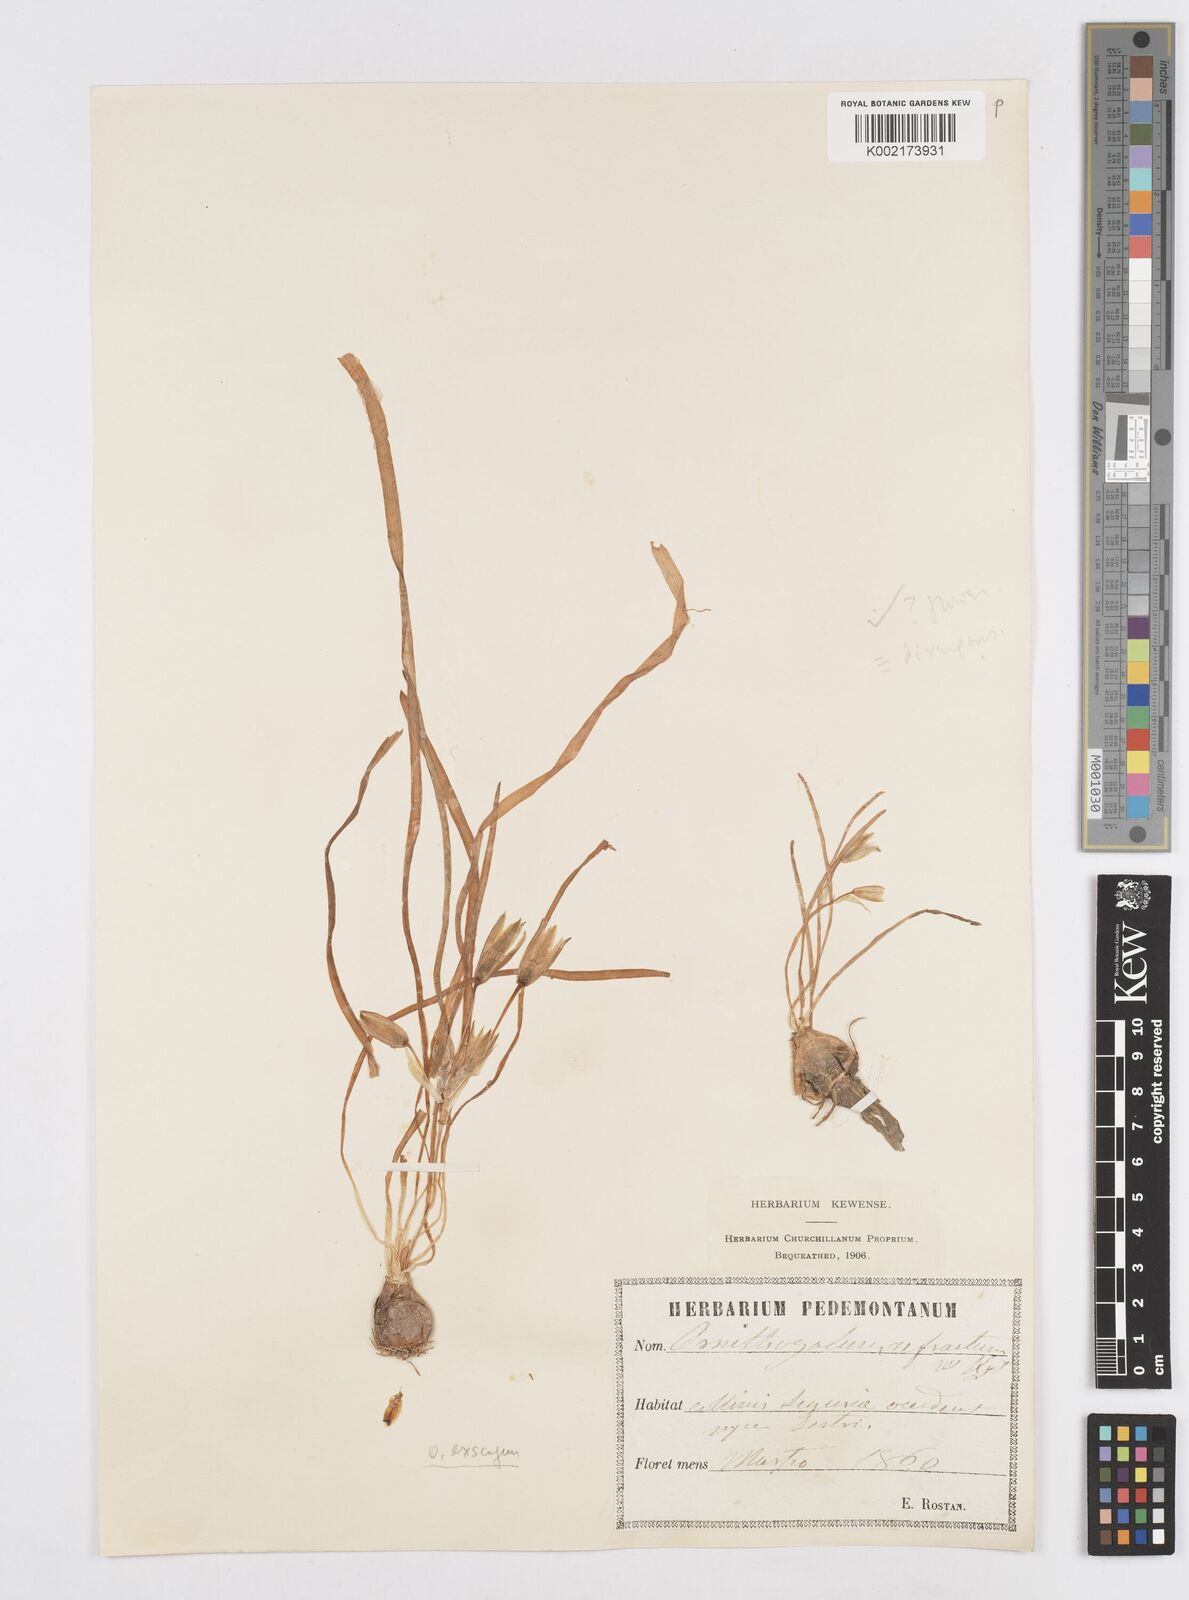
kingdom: Plantae
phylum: Tracheophyta
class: Liliopsida
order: Asparagales
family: Asparagaceae
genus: Ornithogalum
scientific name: Ornithogalum refractum
